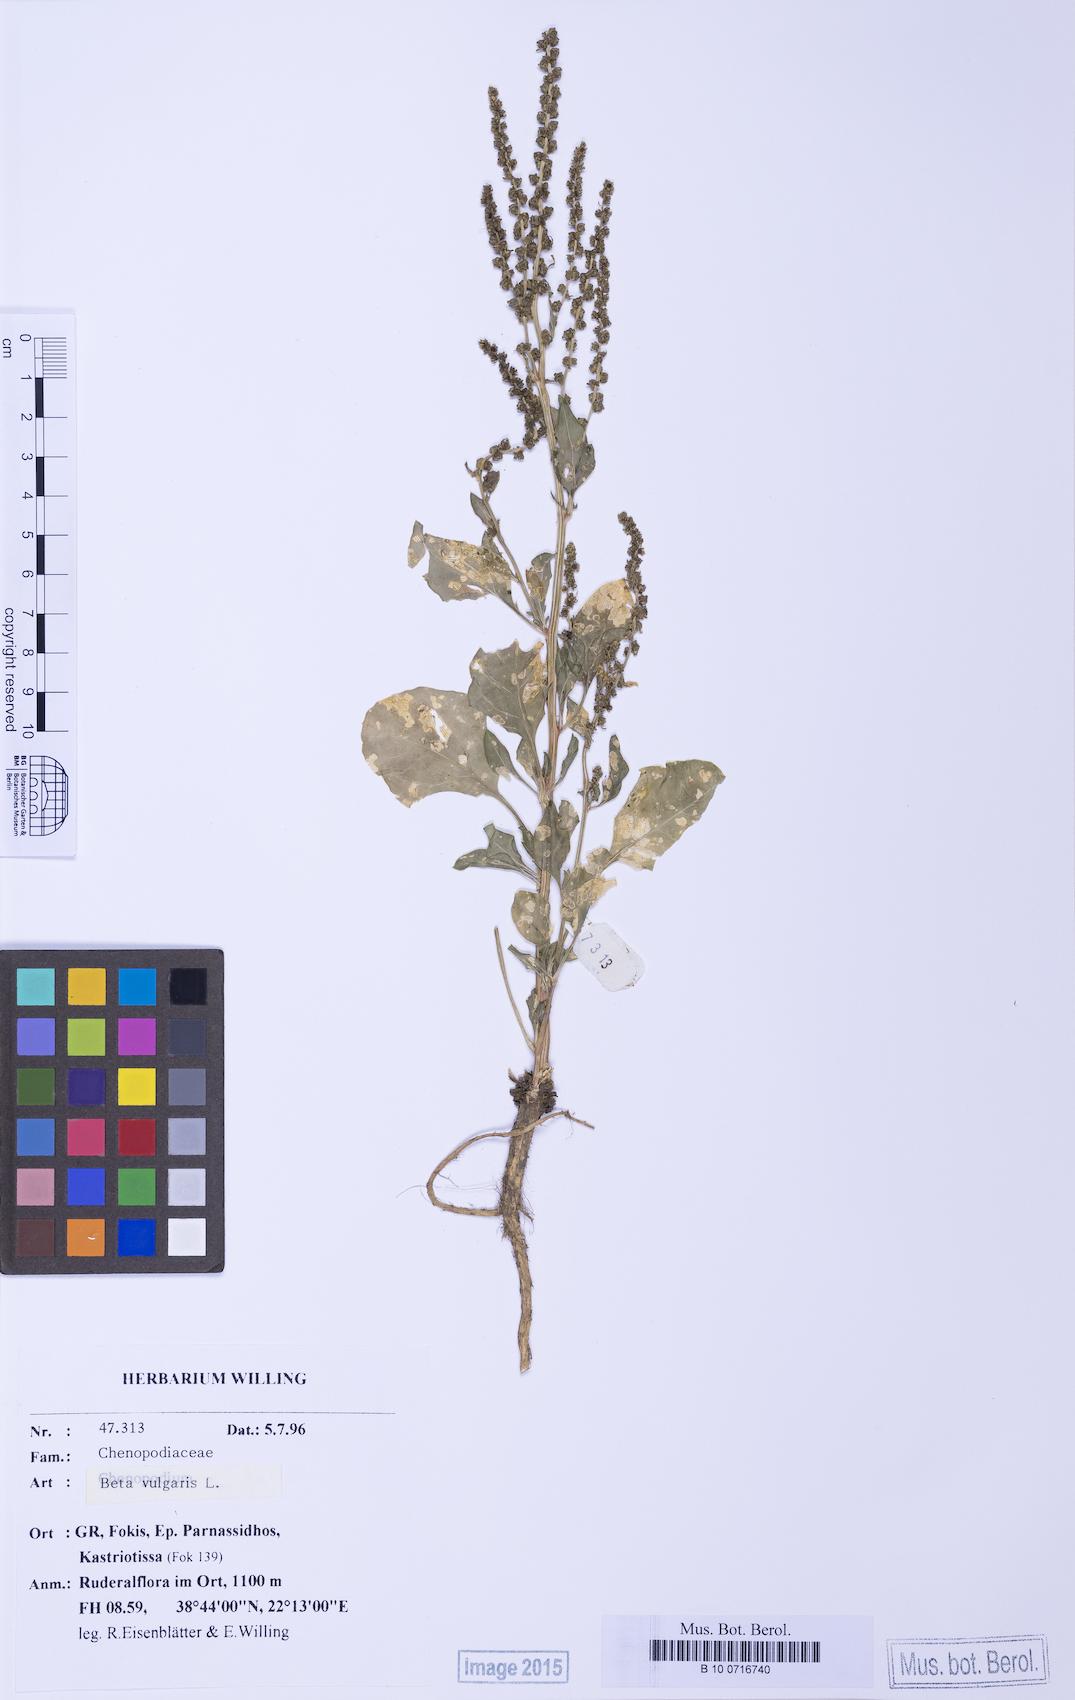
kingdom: Plantae
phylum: Tracheophyta
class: Magnoliopsida
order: Caryophyllales
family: Amaranthaceae
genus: Beta
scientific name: Beta maritima
